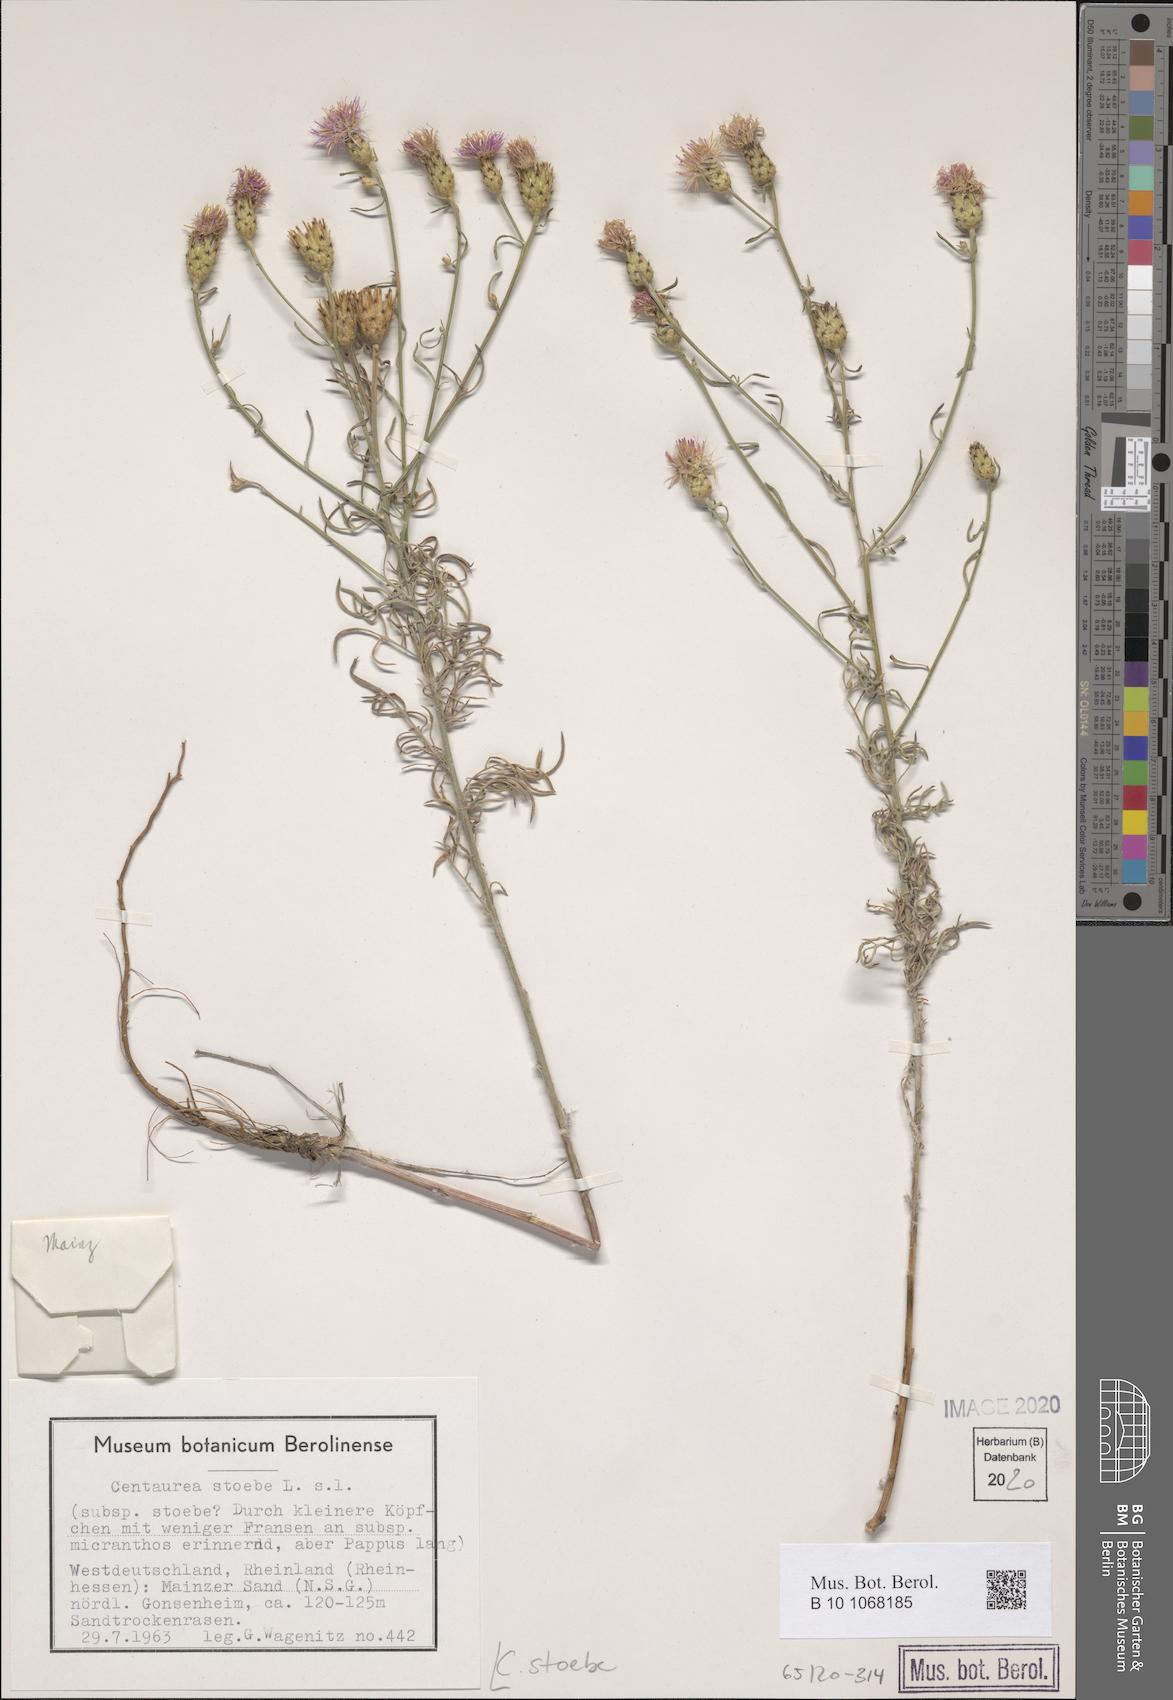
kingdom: Plantae
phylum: Tracheophyta
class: Magnoliopsida
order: Asterales
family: Asteraceae
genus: Centaurea
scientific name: Centaurea stoebe
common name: Spotted knapweed
